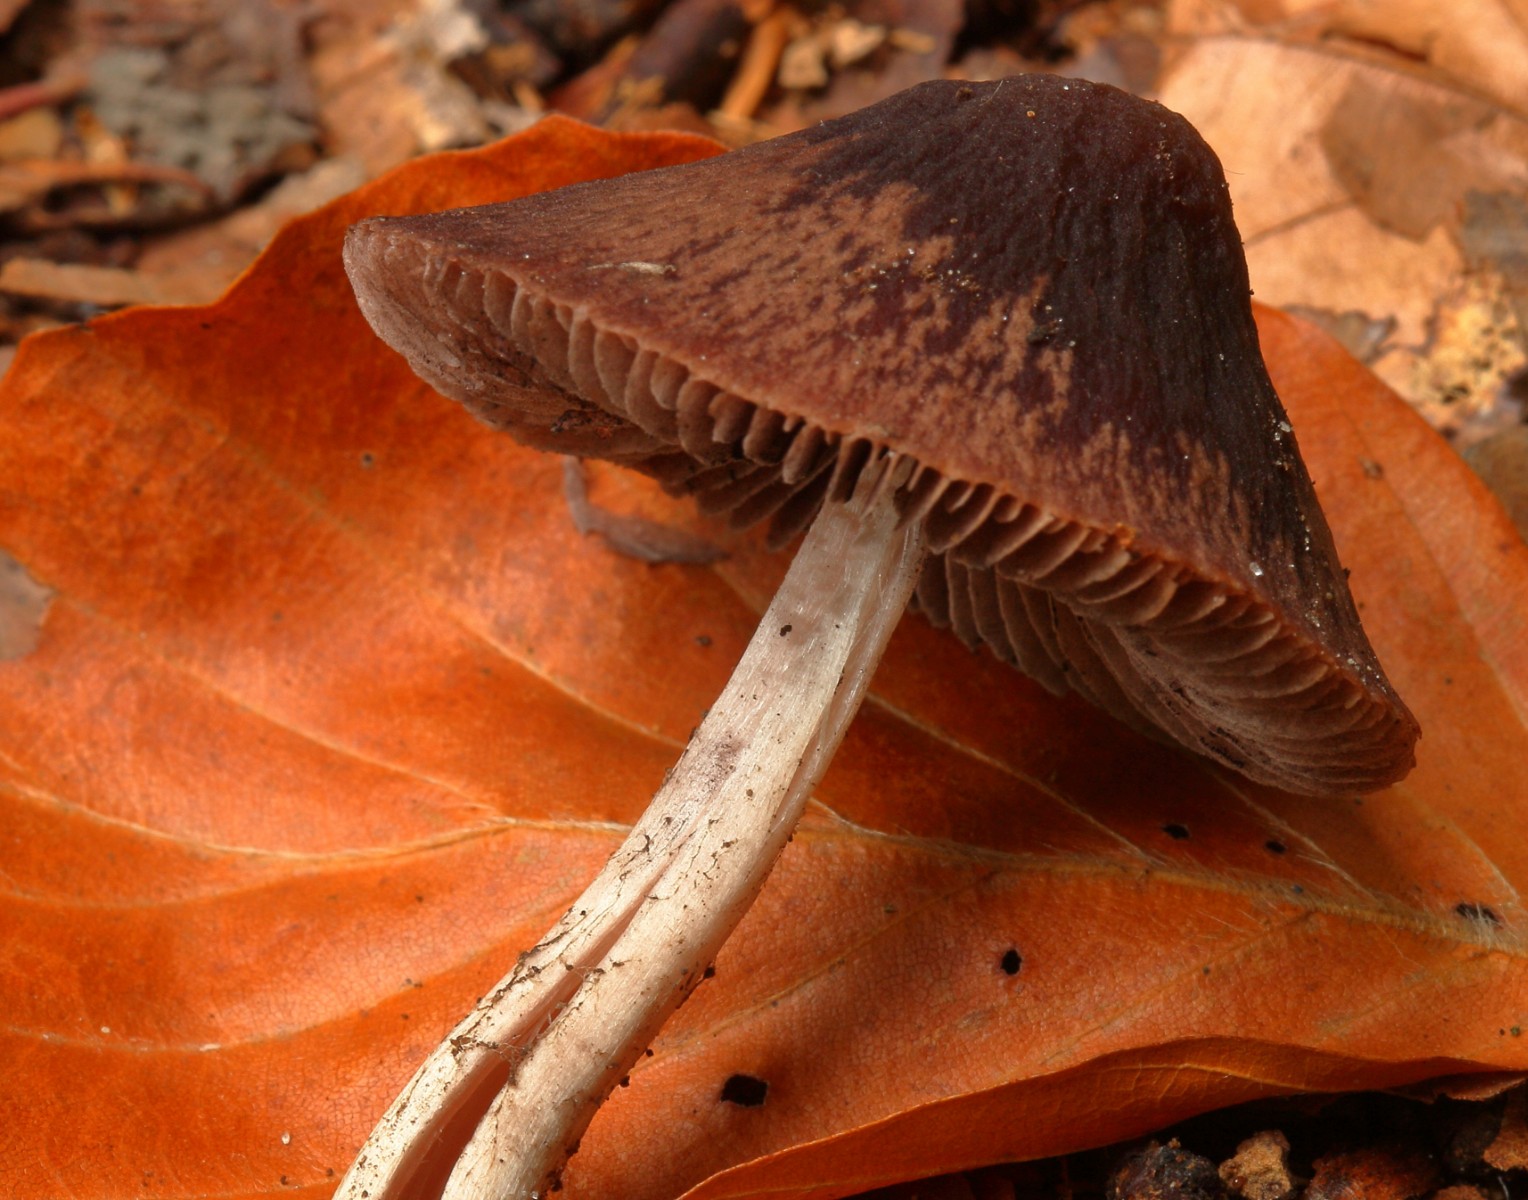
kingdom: Fungi
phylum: Basidiomycota
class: Agaricomycetes
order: Agaricales
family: Psathyrellaceae
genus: Psathyrella
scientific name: Psathyrella bipellis
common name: vinrød mørkhat
